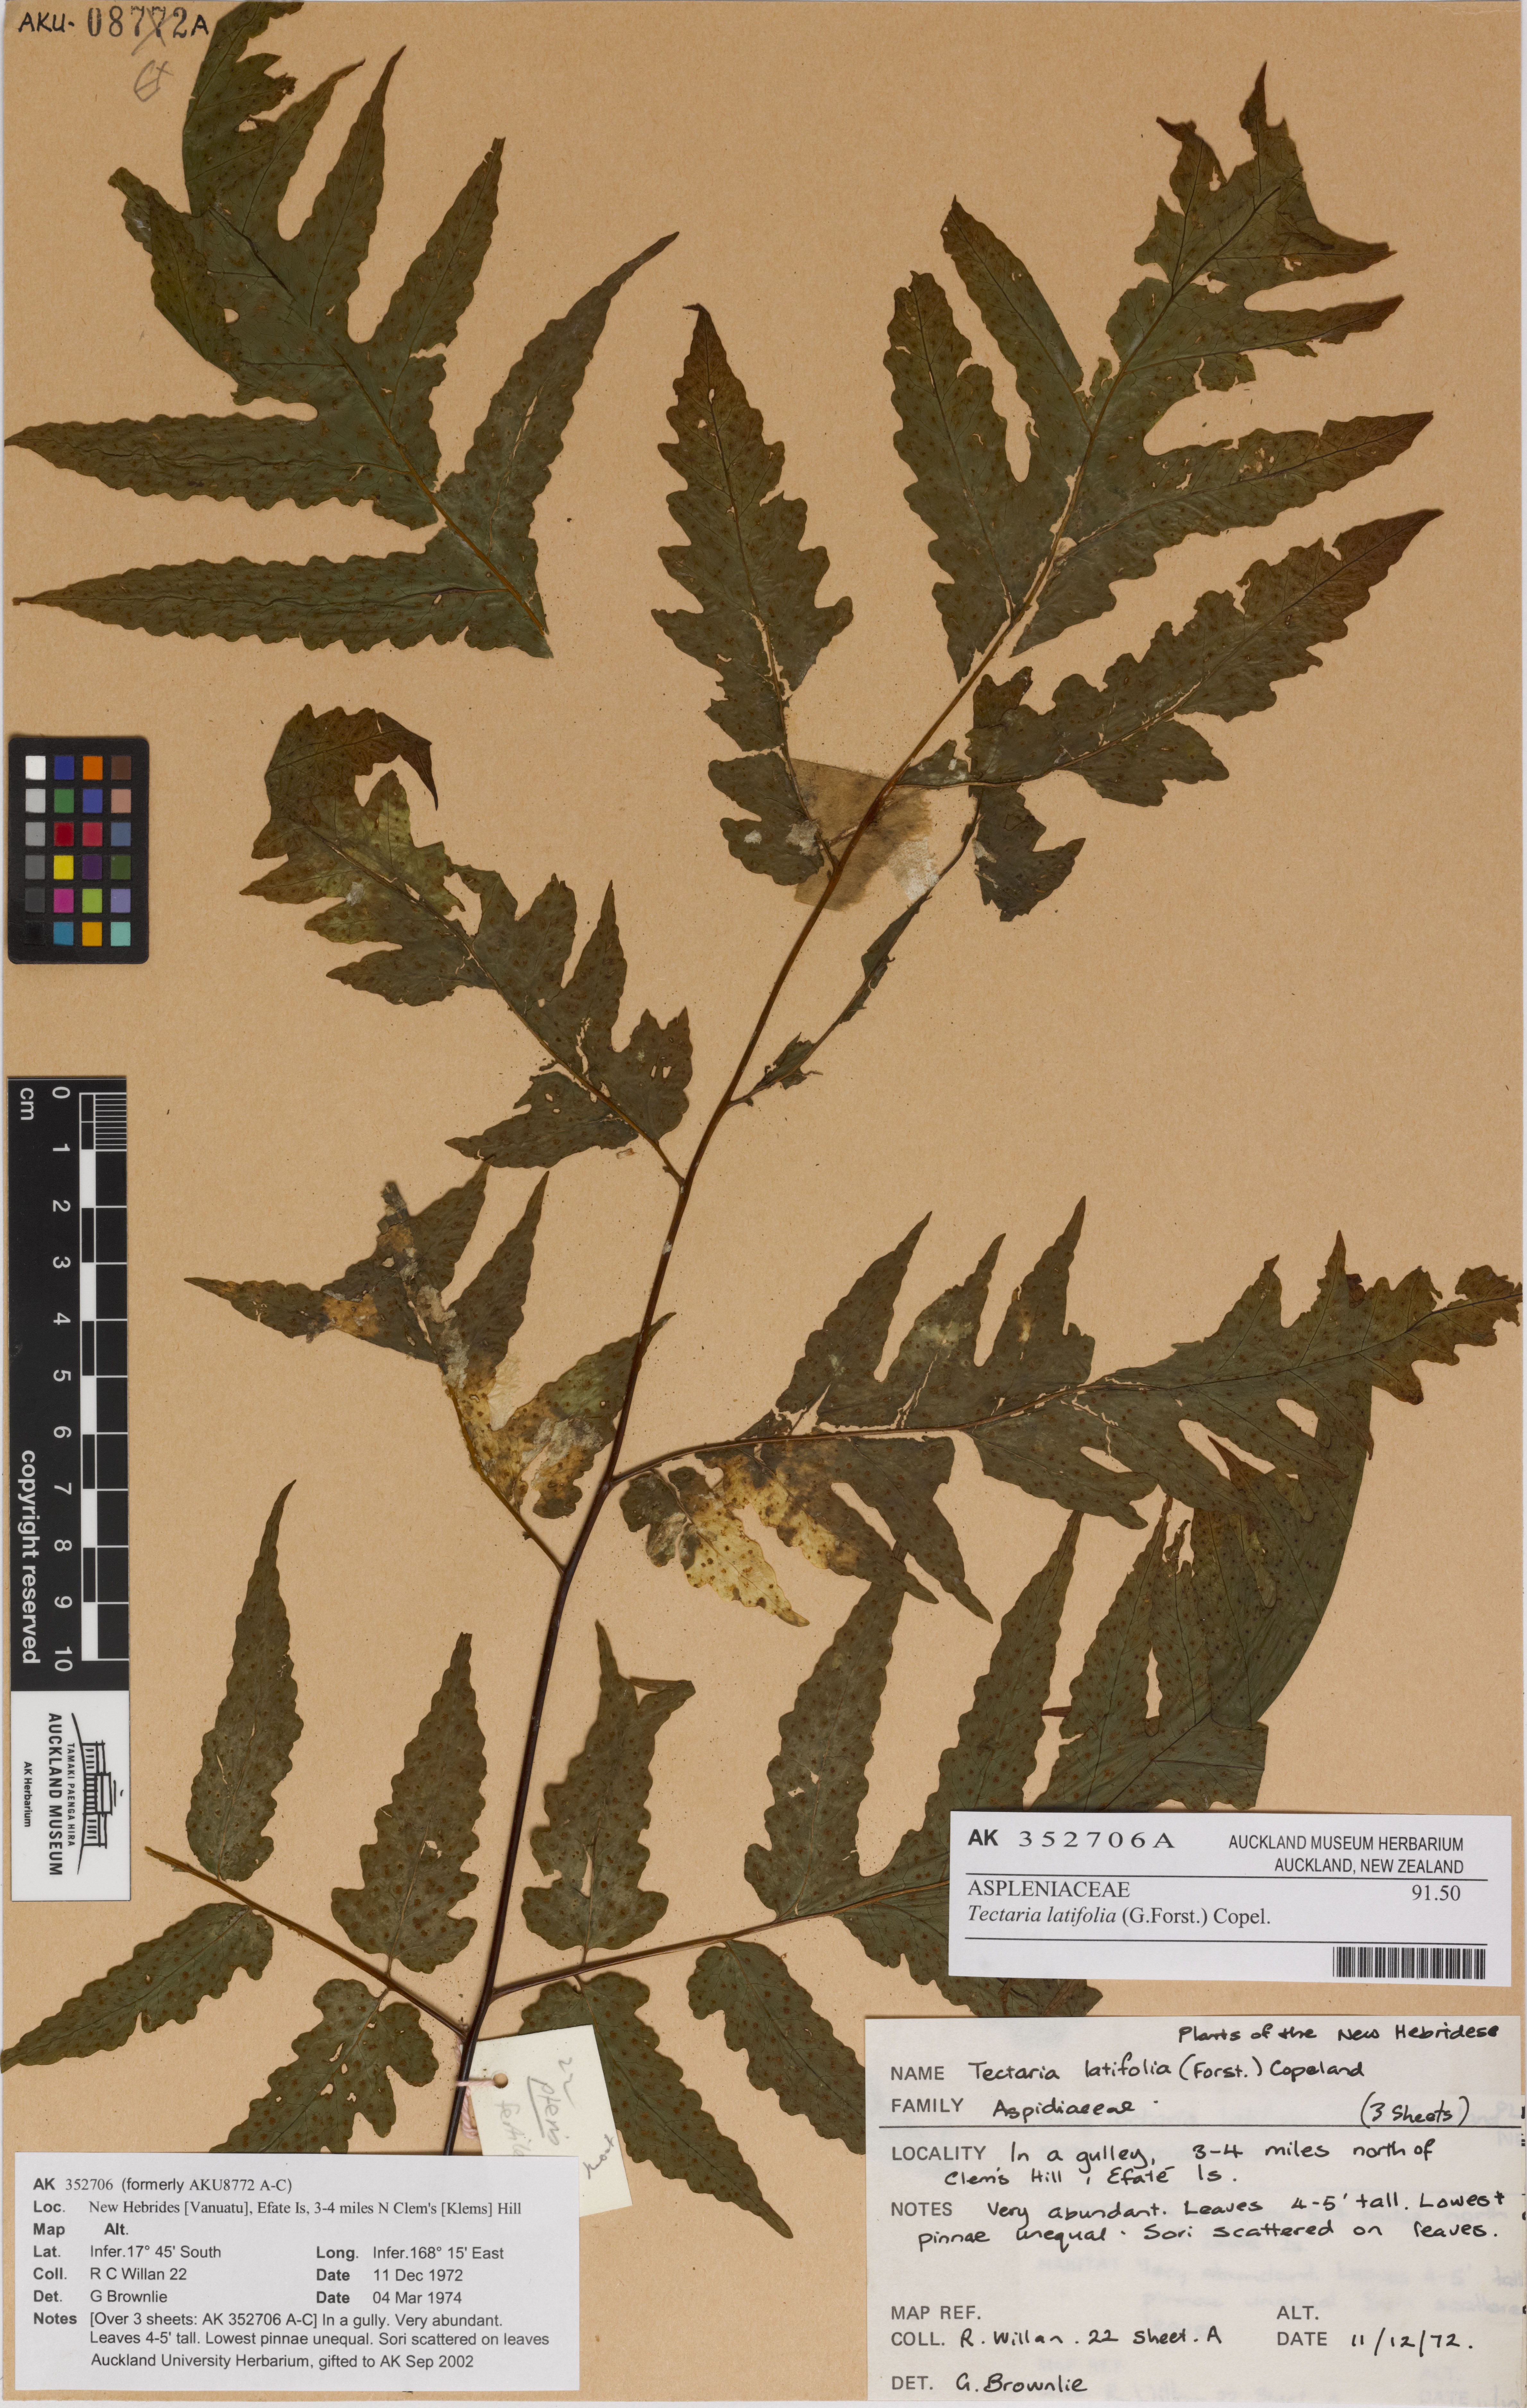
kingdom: Plantae
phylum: Tracheophyta
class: Polypodiopsida
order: Polypodiales
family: Tectariaceae
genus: Tectaria
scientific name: Tectaria latifolia
